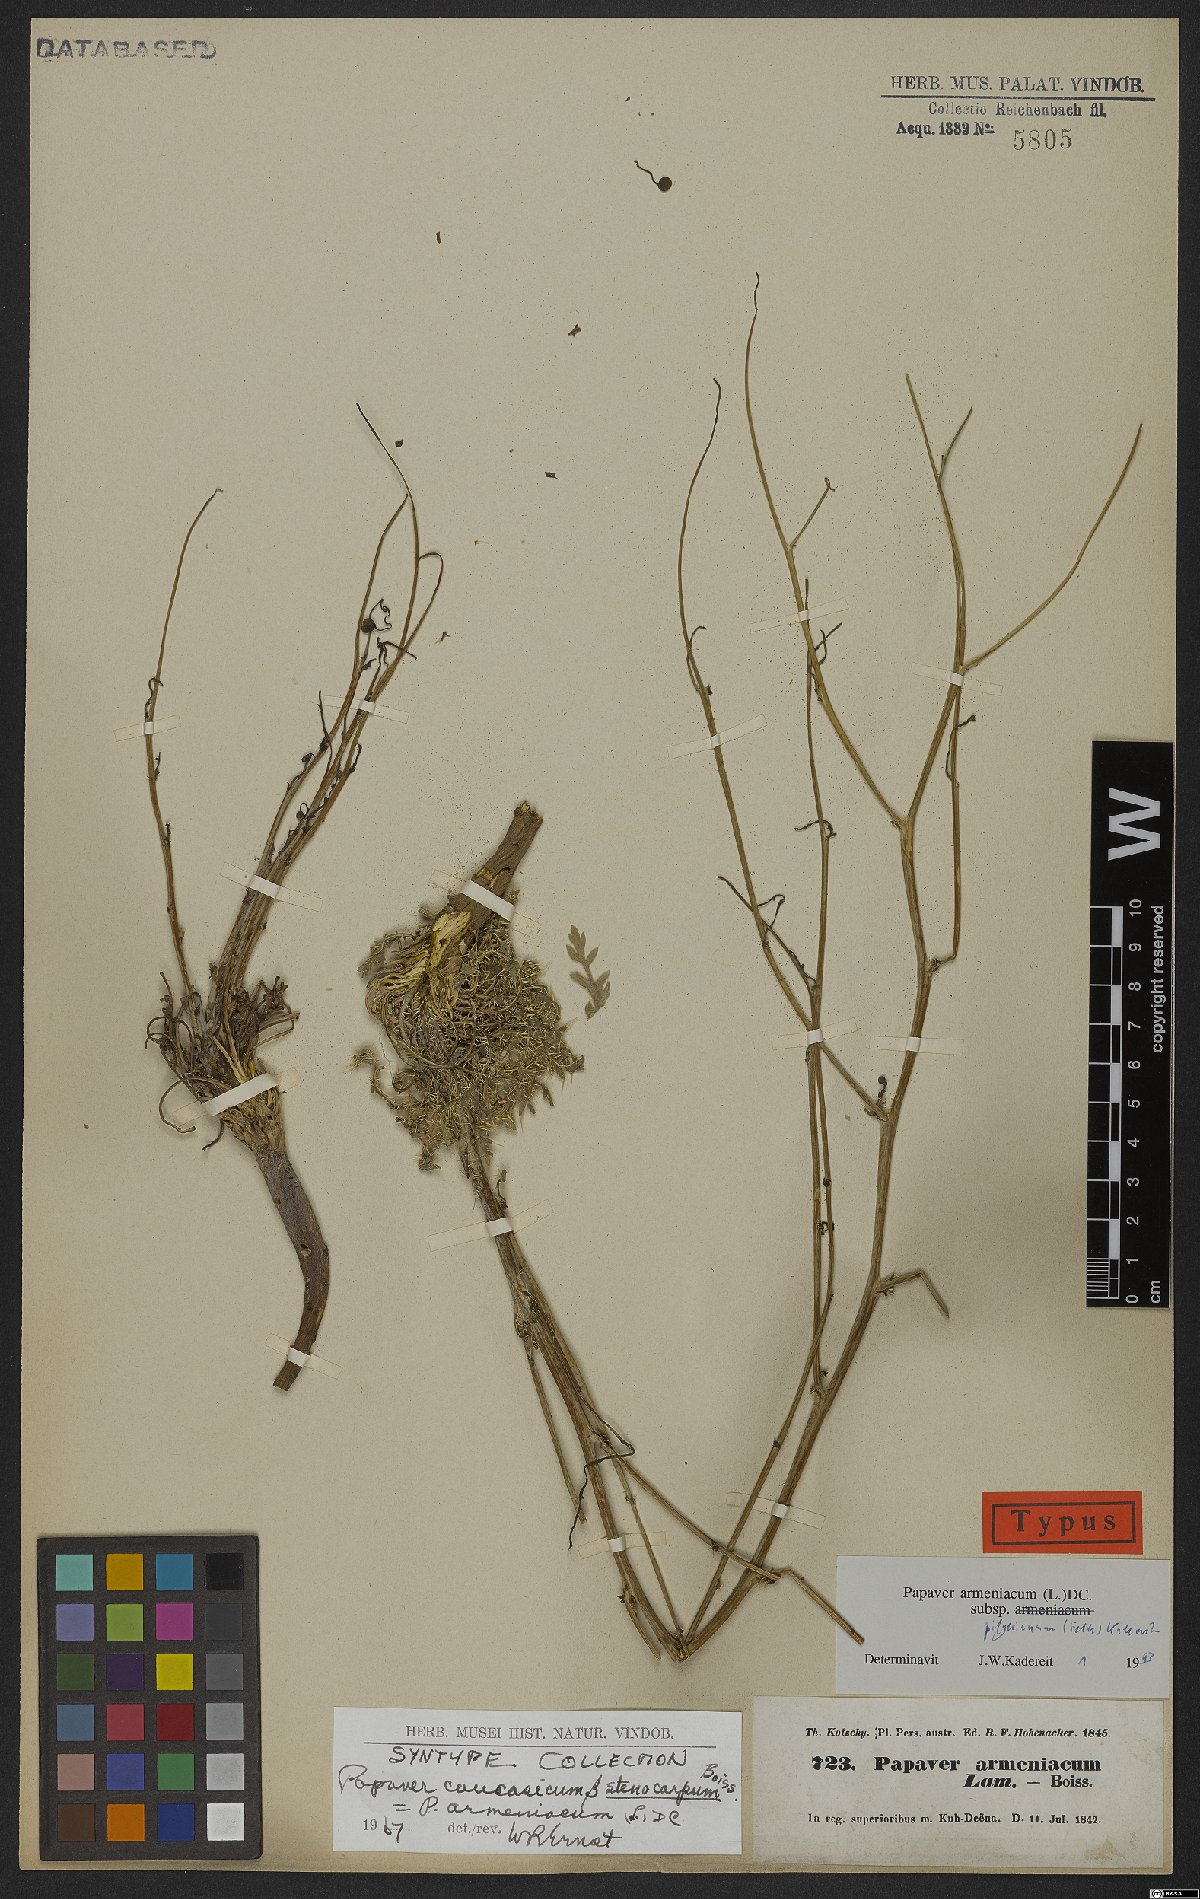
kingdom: Plantae
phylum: Tracheophyta
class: Magnoliopsida
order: Ranunculales
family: Papaveraceae
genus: Papaver
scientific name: Papaver armeniacum
